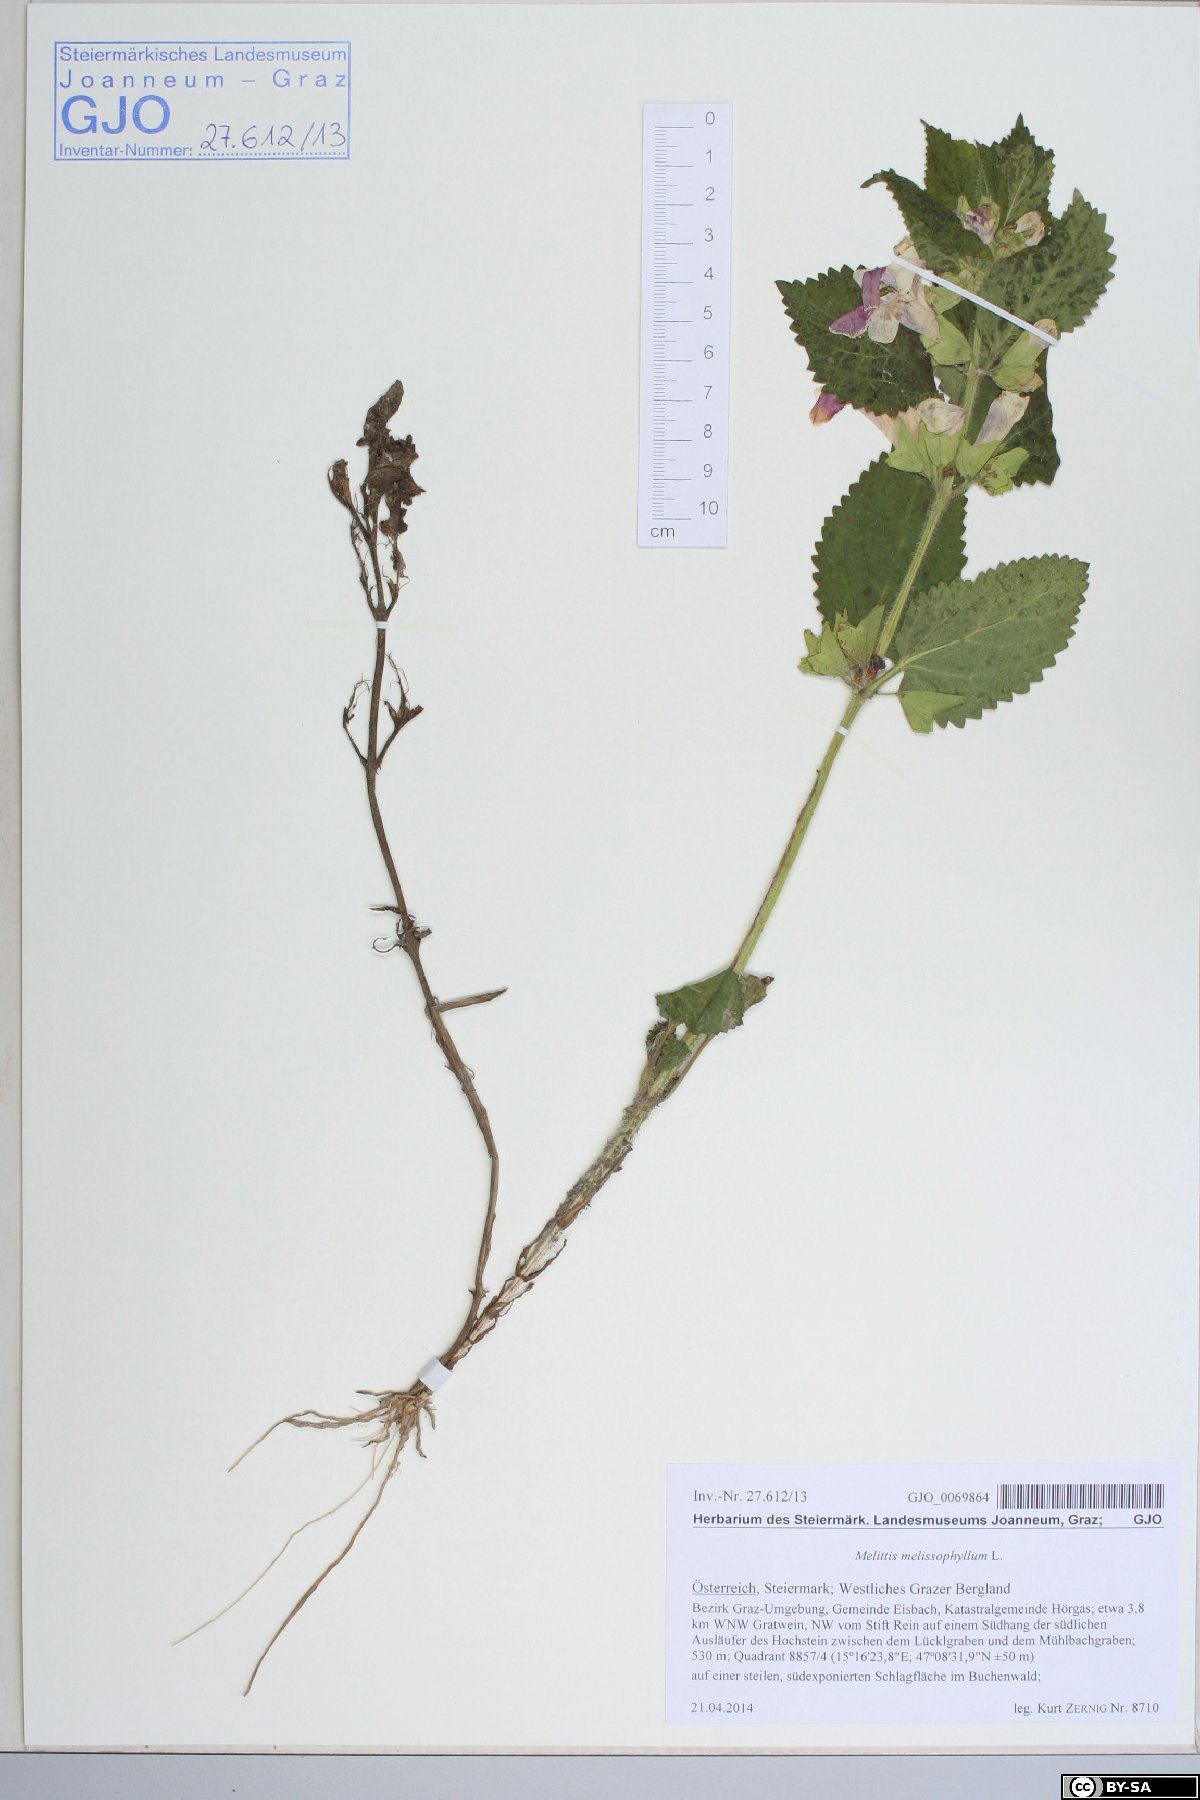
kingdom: Plantae
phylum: Tracheophyta
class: Magnoliopsida
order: Lamiales
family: Lamiaceae
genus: Melittis
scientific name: Melittis melissophyllum
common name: Bastard balm
